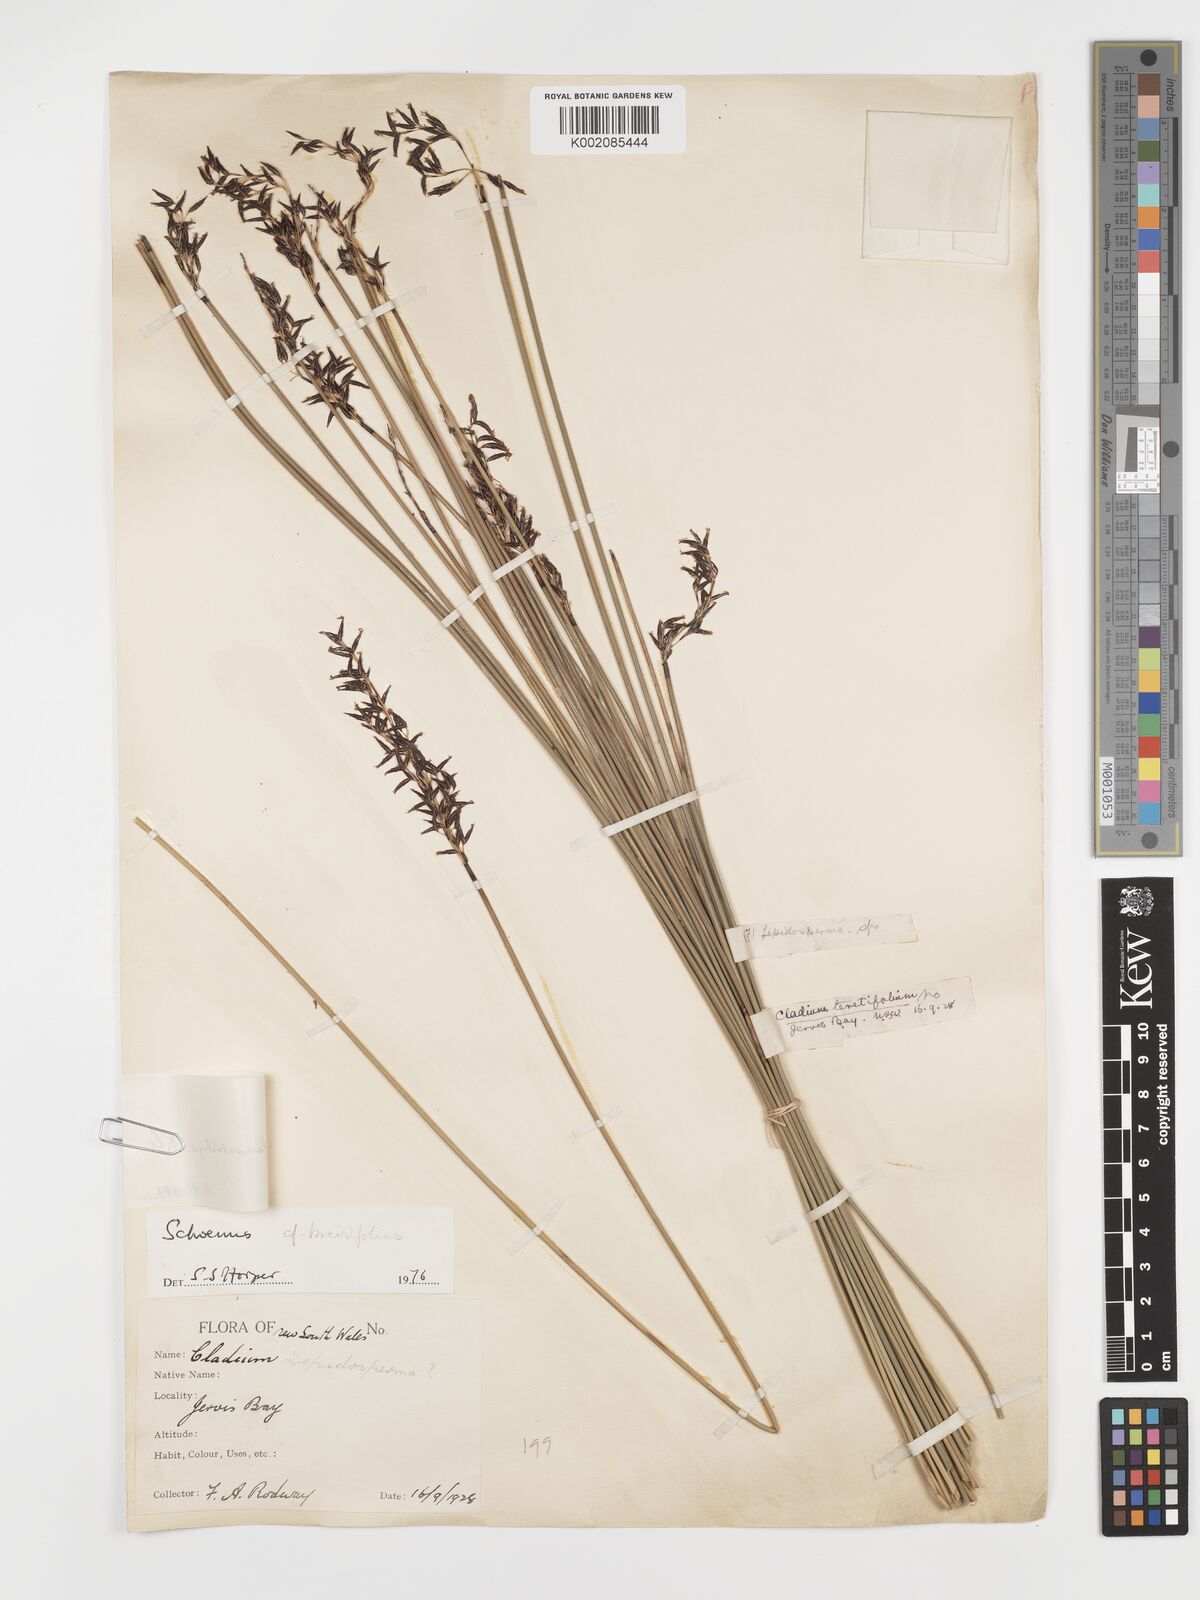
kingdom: Plantae
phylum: Tracheophyta
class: Liliopsida
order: Poales
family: Cyperaceae
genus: Schoenus
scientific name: Schoenus melanostachys
